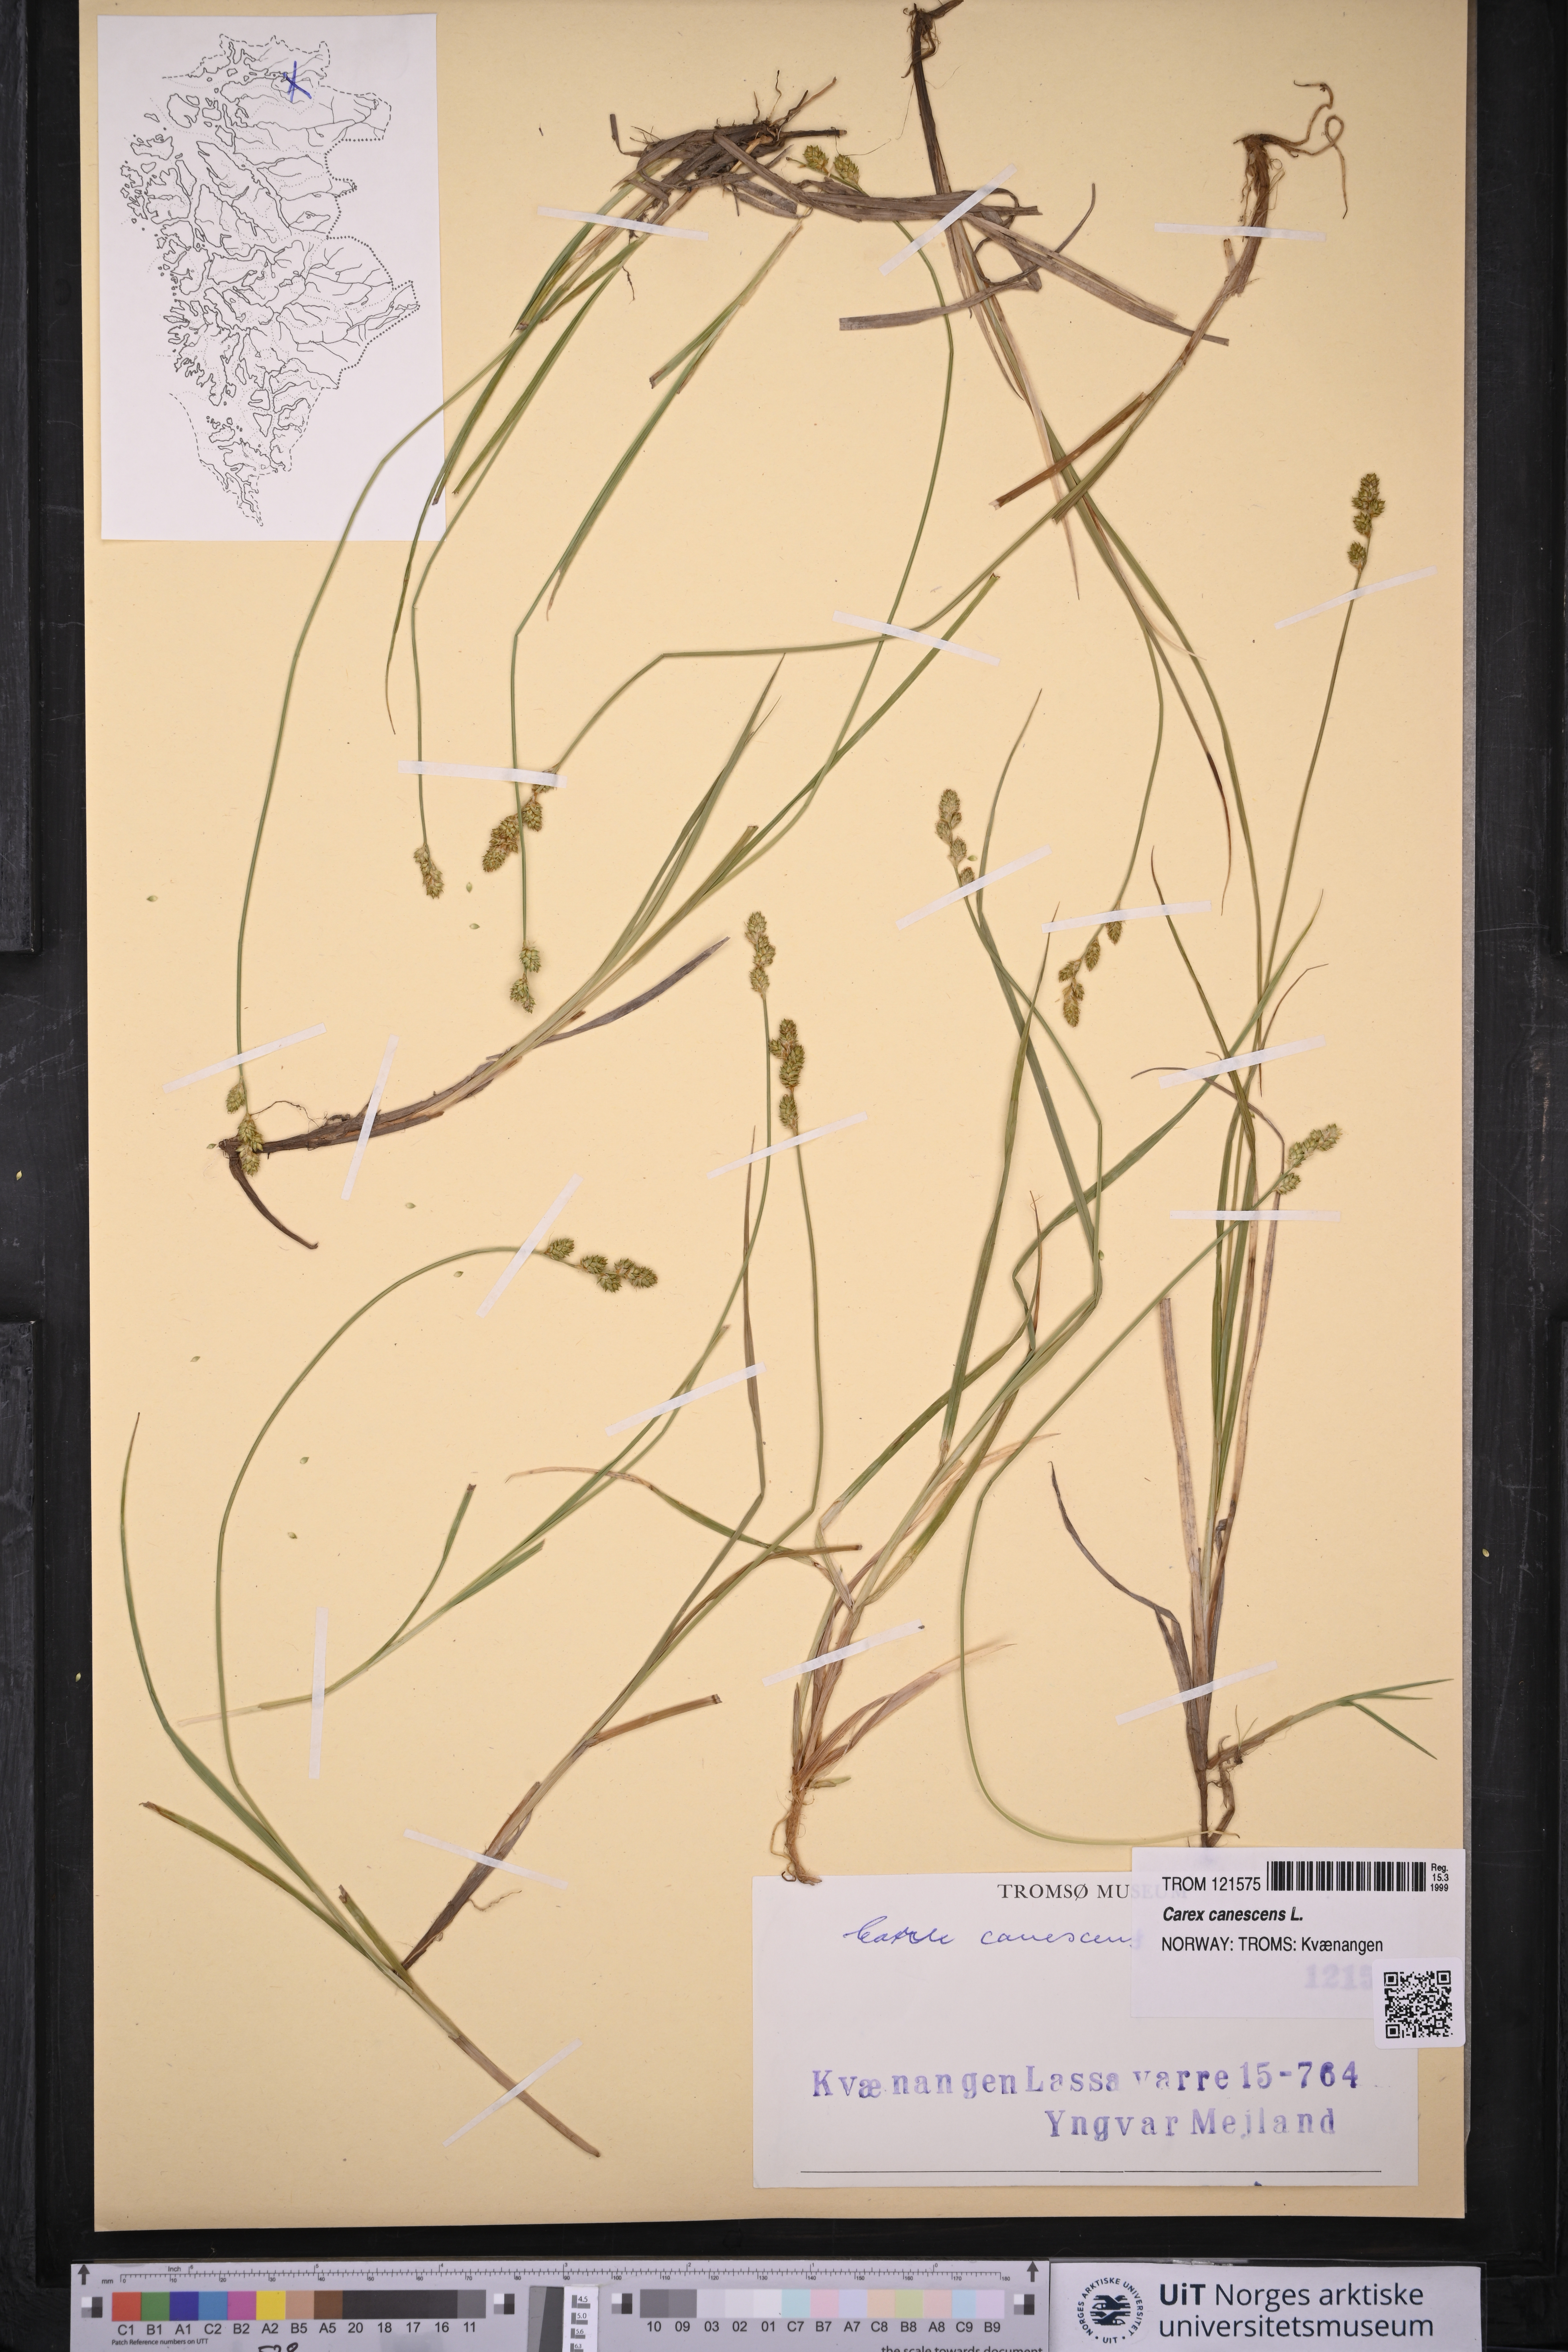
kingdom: Plantae
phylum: Tracheophyta
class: Liliopsida
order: Poales
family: Cyperaceae
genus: Carex
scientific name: Carex canescens
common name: White sedge
